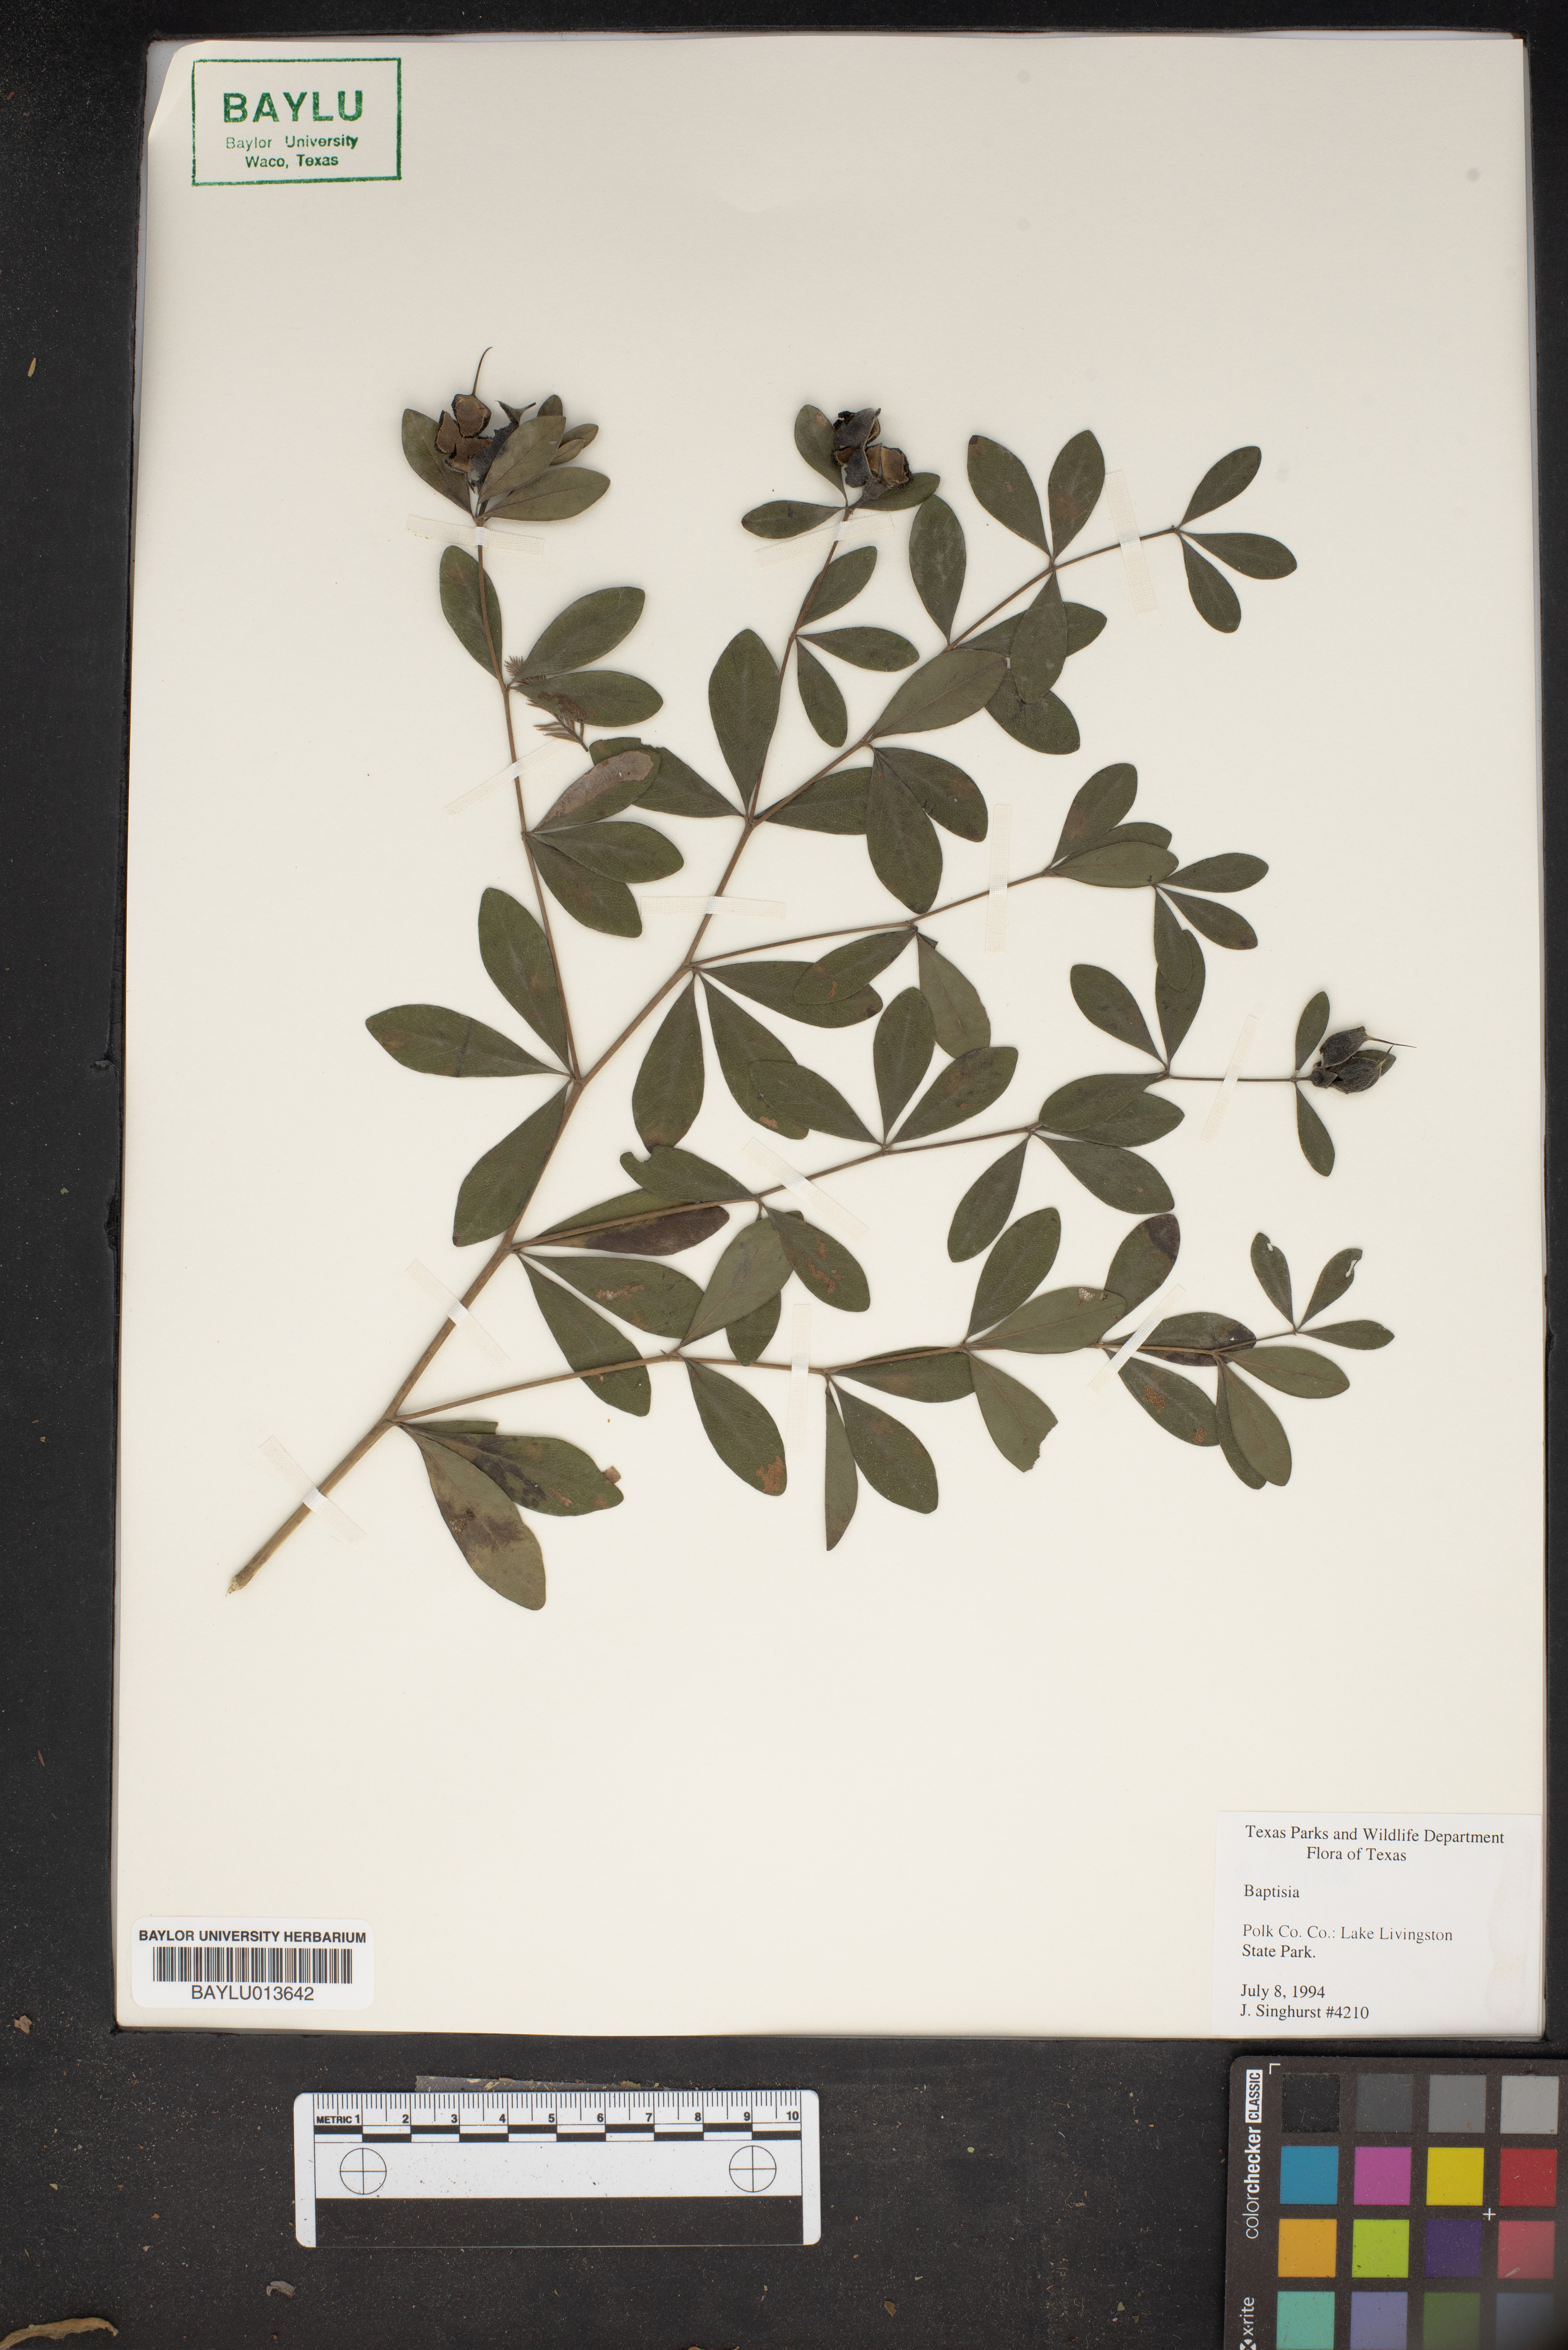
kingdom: Plantae
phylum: Tracheophyta
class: Magnoliopsida
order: Fabales
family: Fabaceae
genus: Baptisia
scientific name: Baptisia
